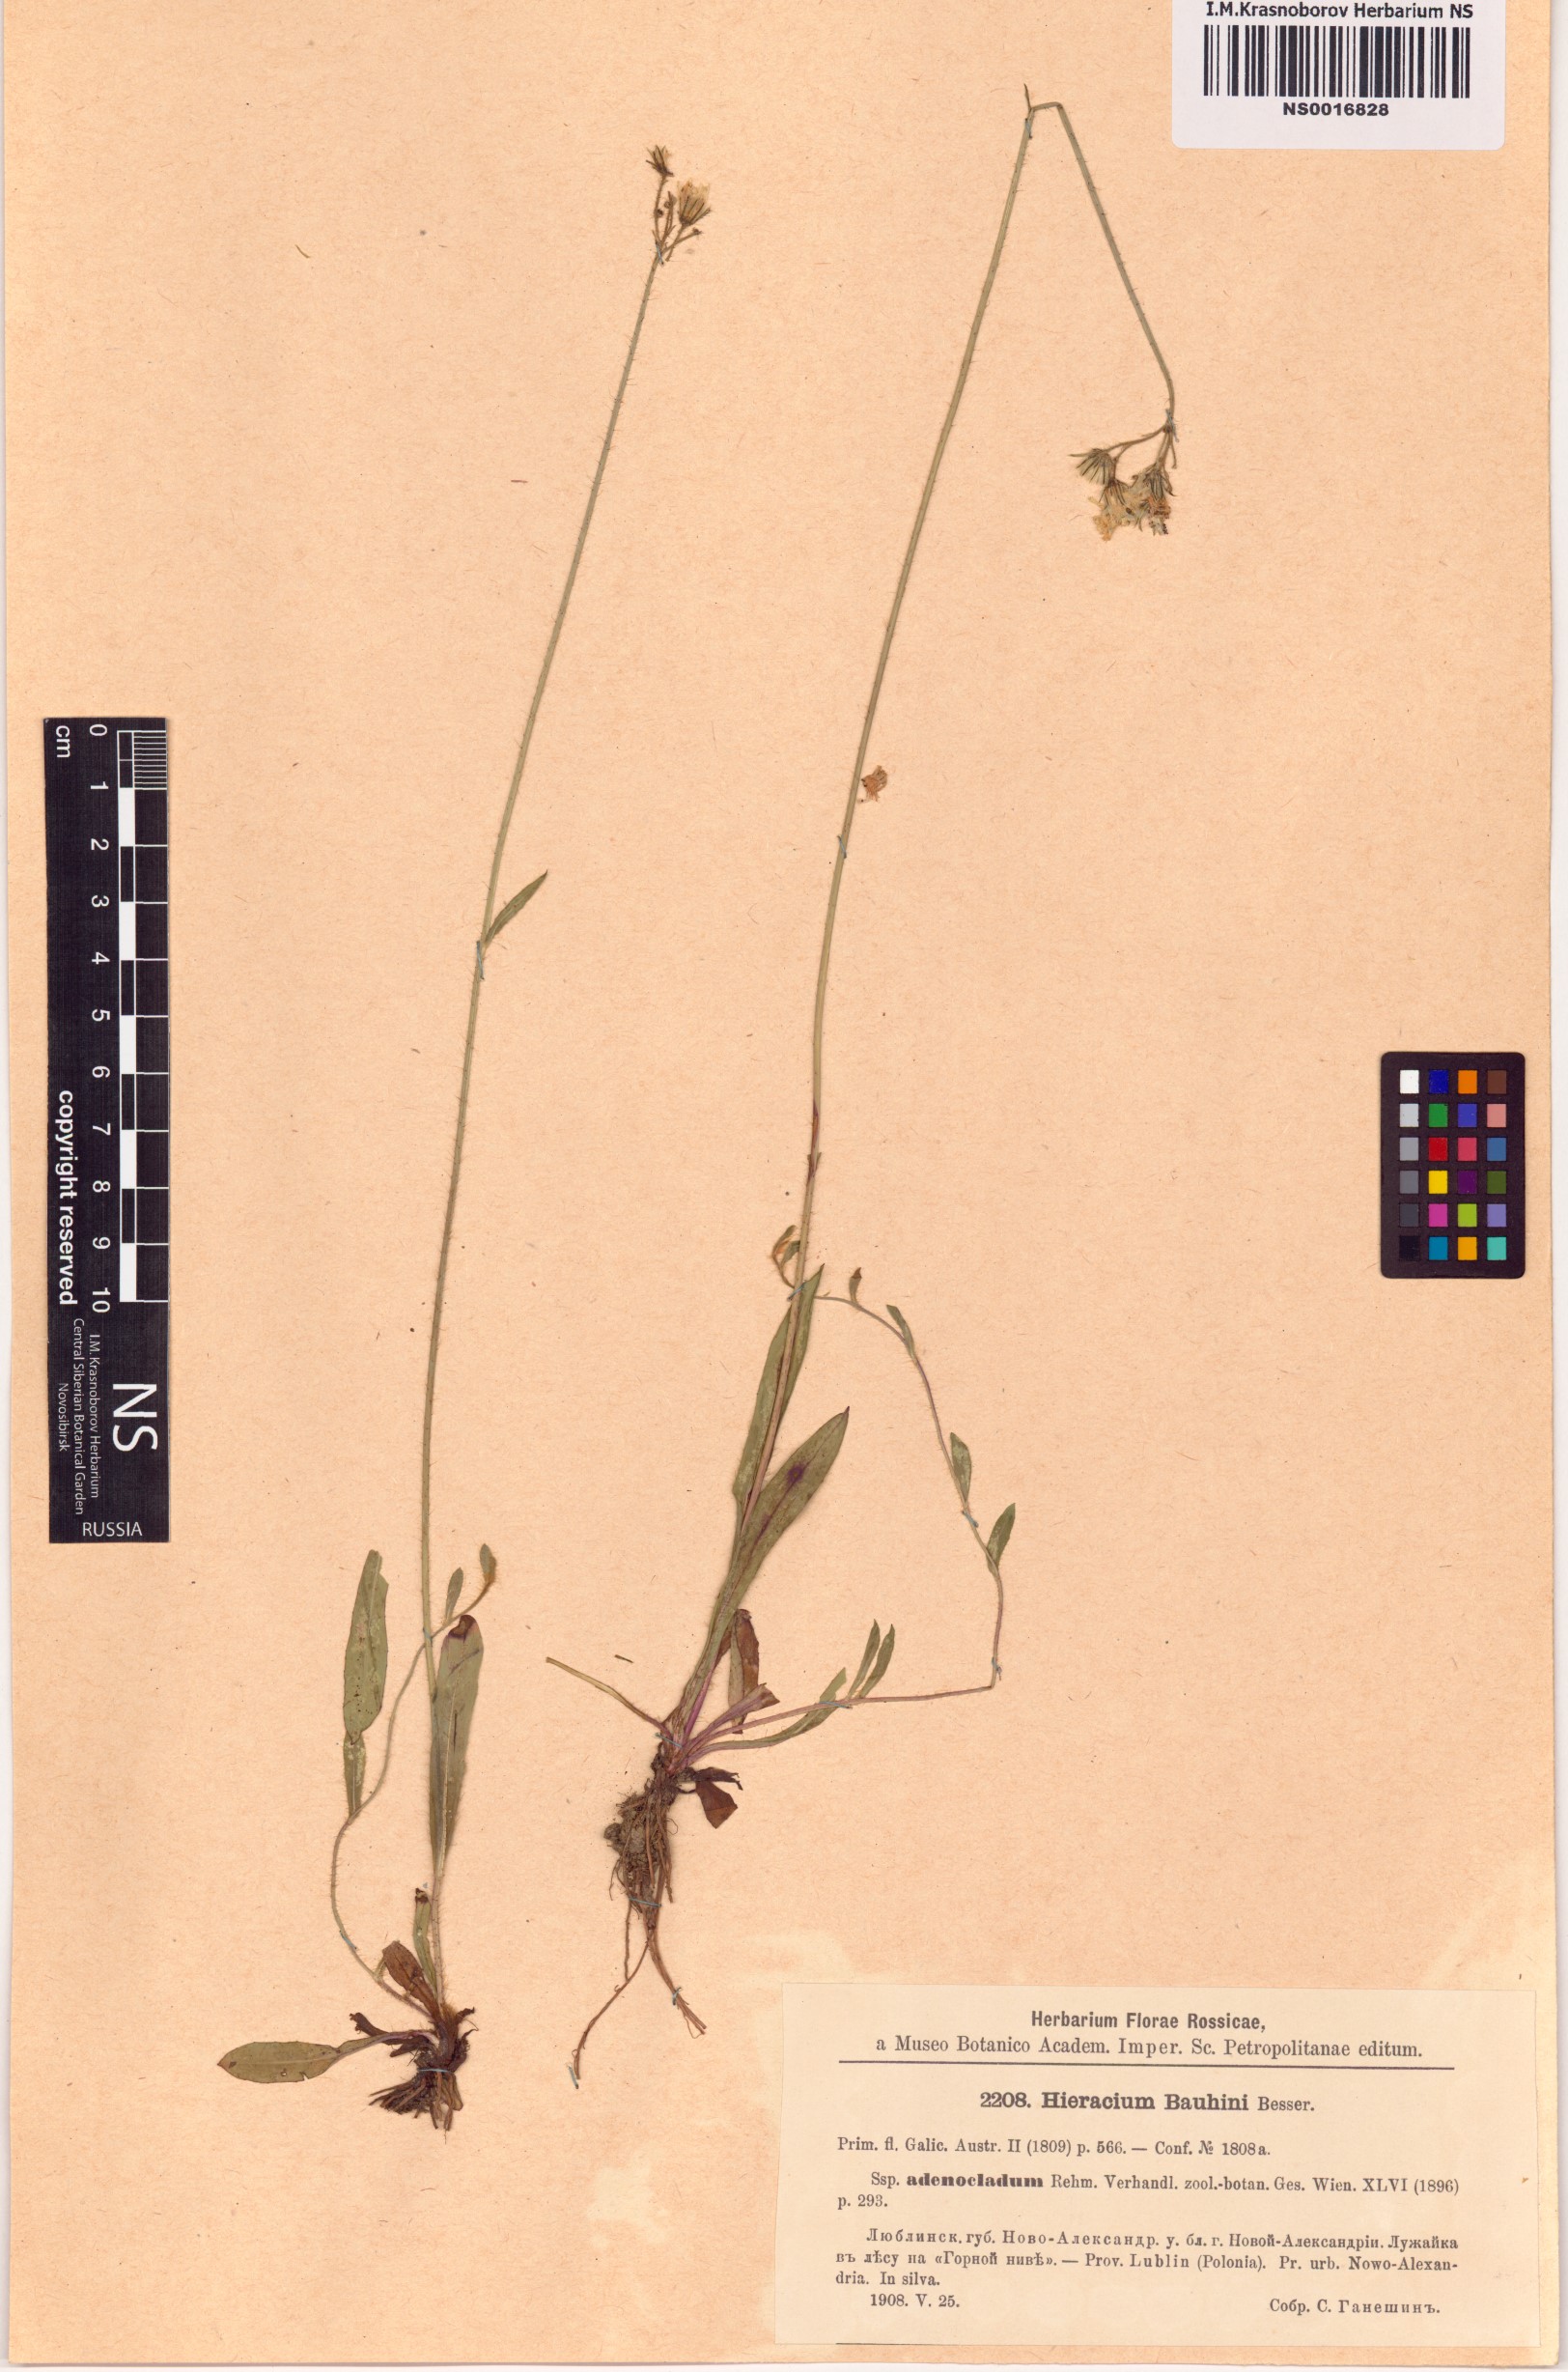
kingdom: Plantae
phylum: Tracheophyta
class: Magnoliopsida
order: Asterales
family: Asteraceae
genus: Pilosella
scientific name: Pilosella bauhini
